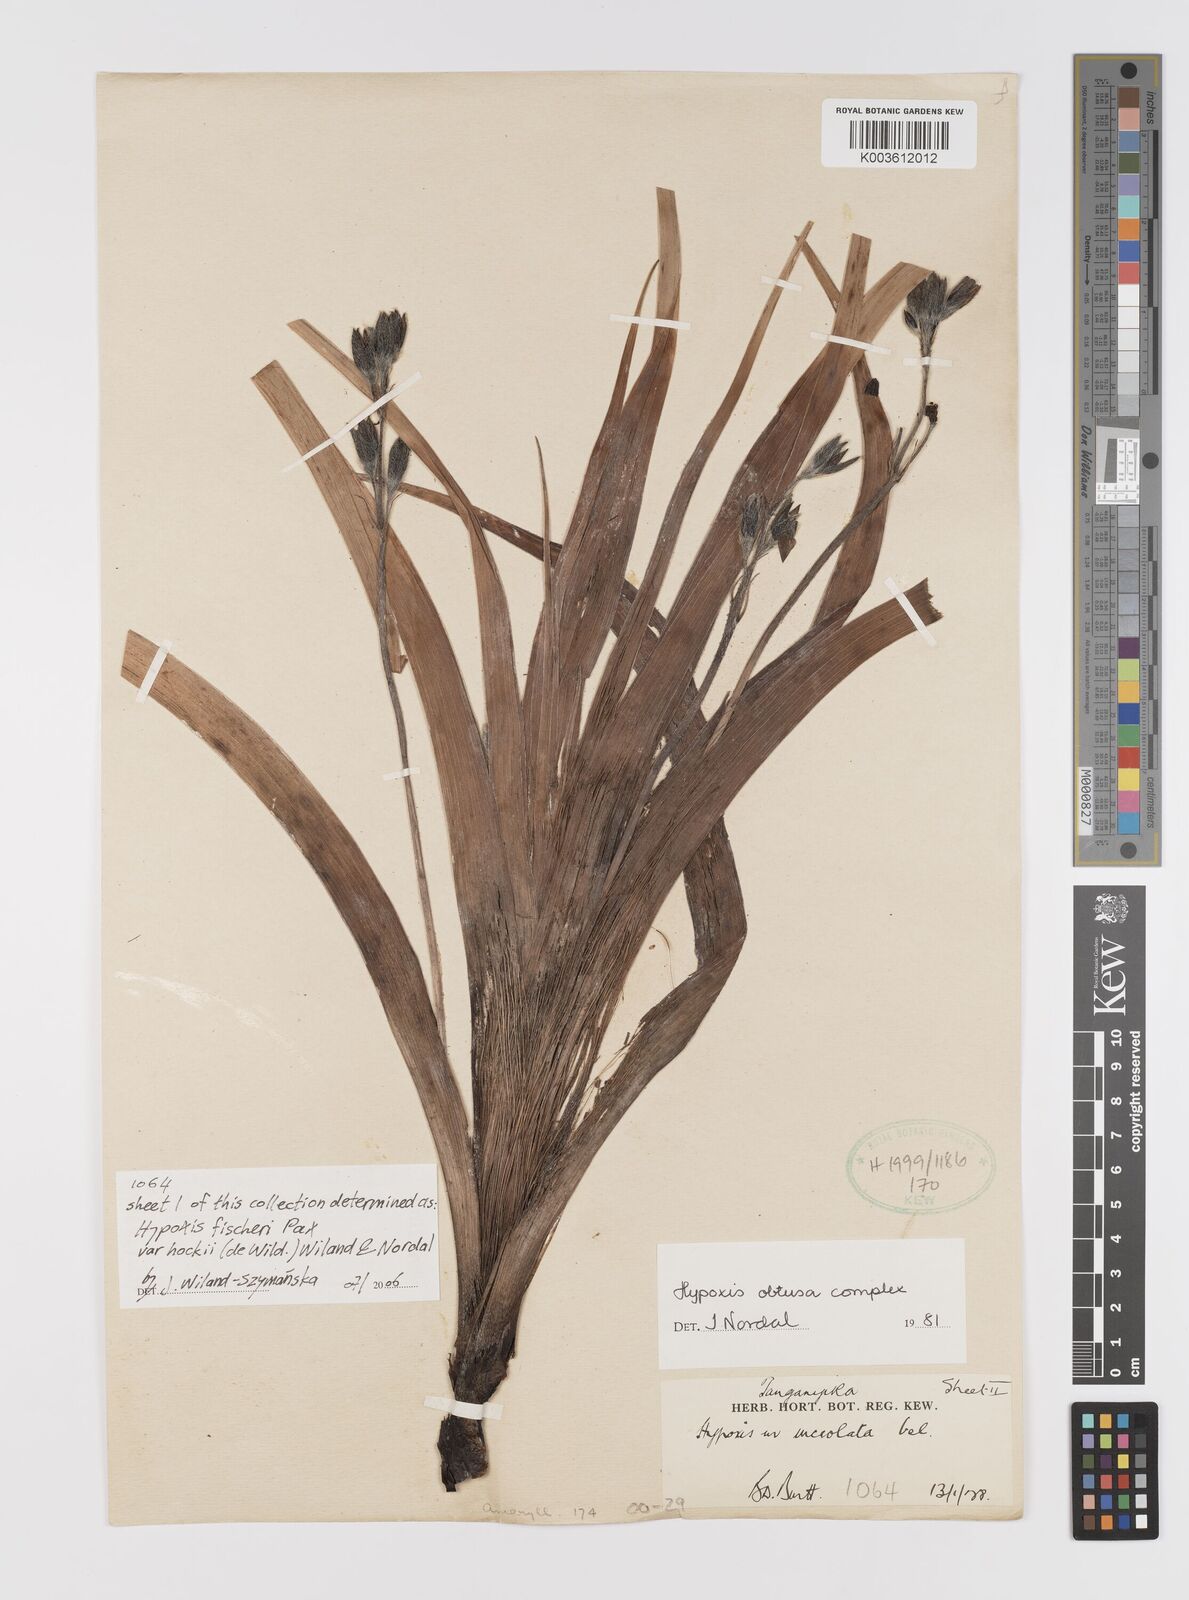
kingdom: Plantae
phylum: Tracheophyta
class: Liliopsida
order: Asparagales
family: Hypoxidaceae
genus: Hypoxis
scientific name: Hypoxis fischeri
